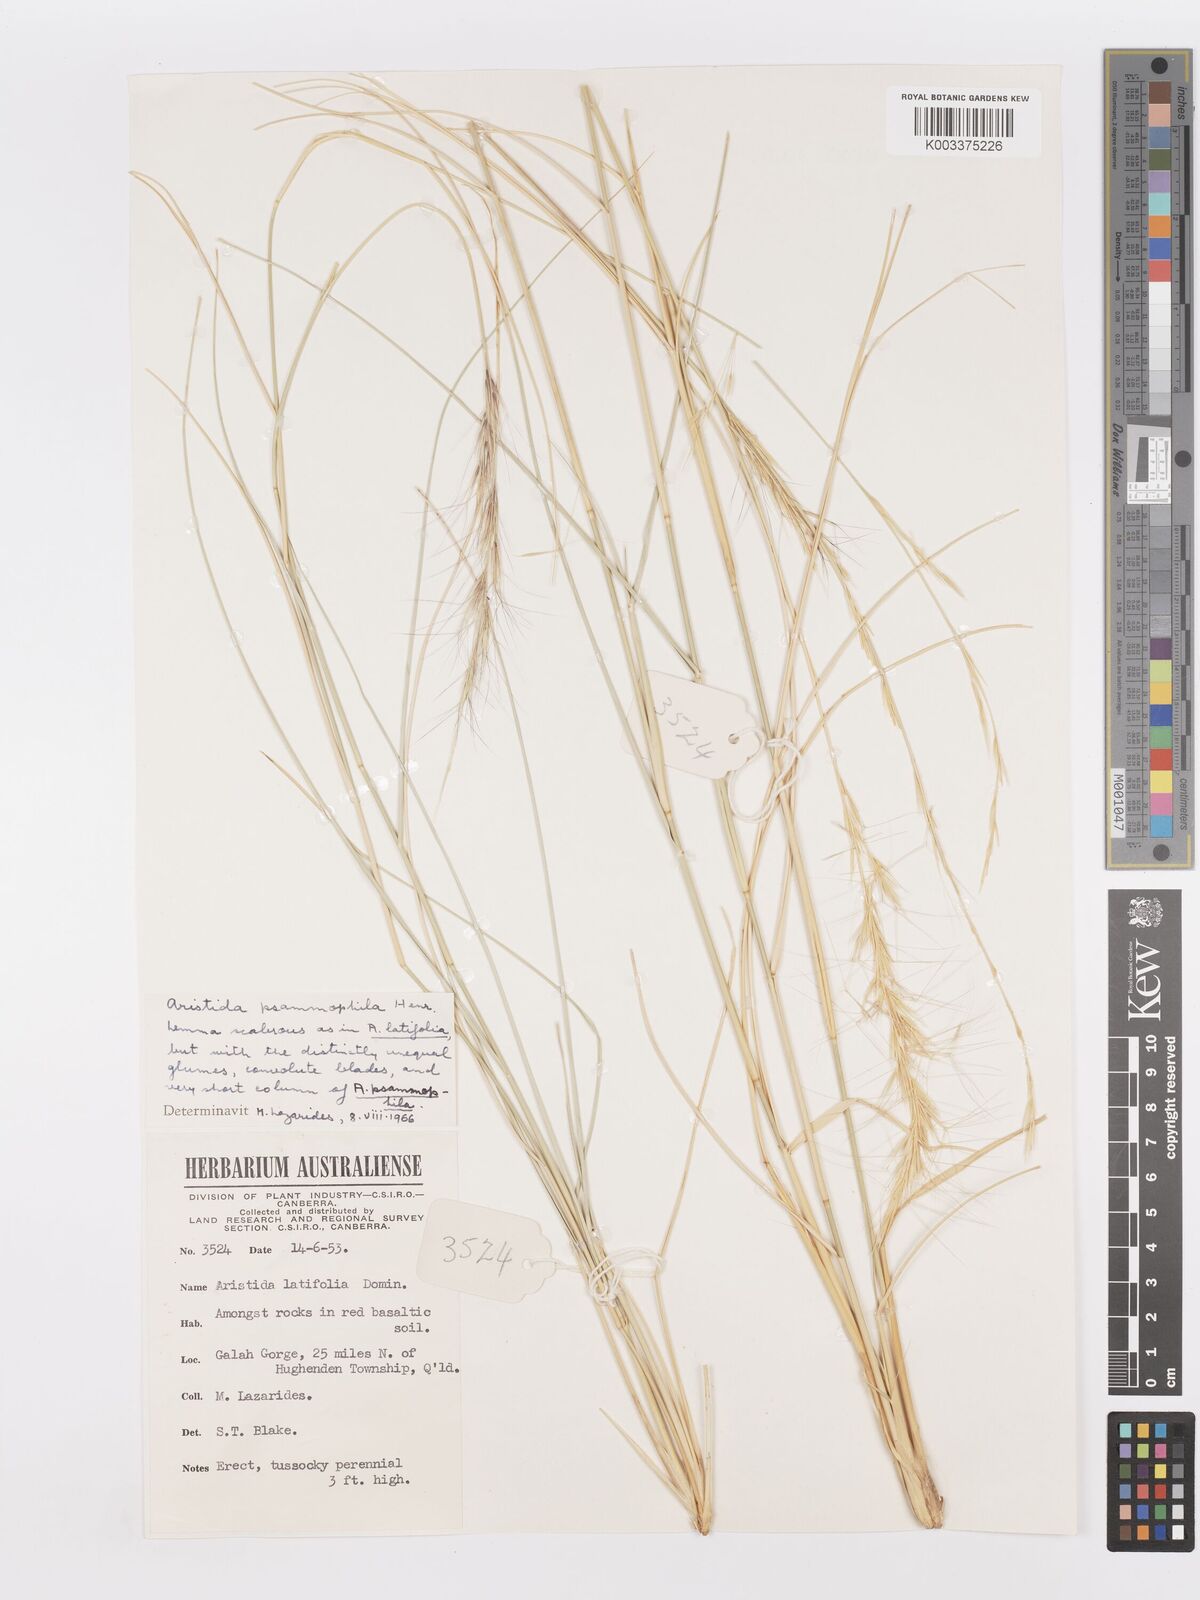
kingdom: Plantae
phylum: Tracheophyta
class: Liliopsida
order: Poales
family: Poaceae
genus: Aristida
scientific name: Aristida psammophila
